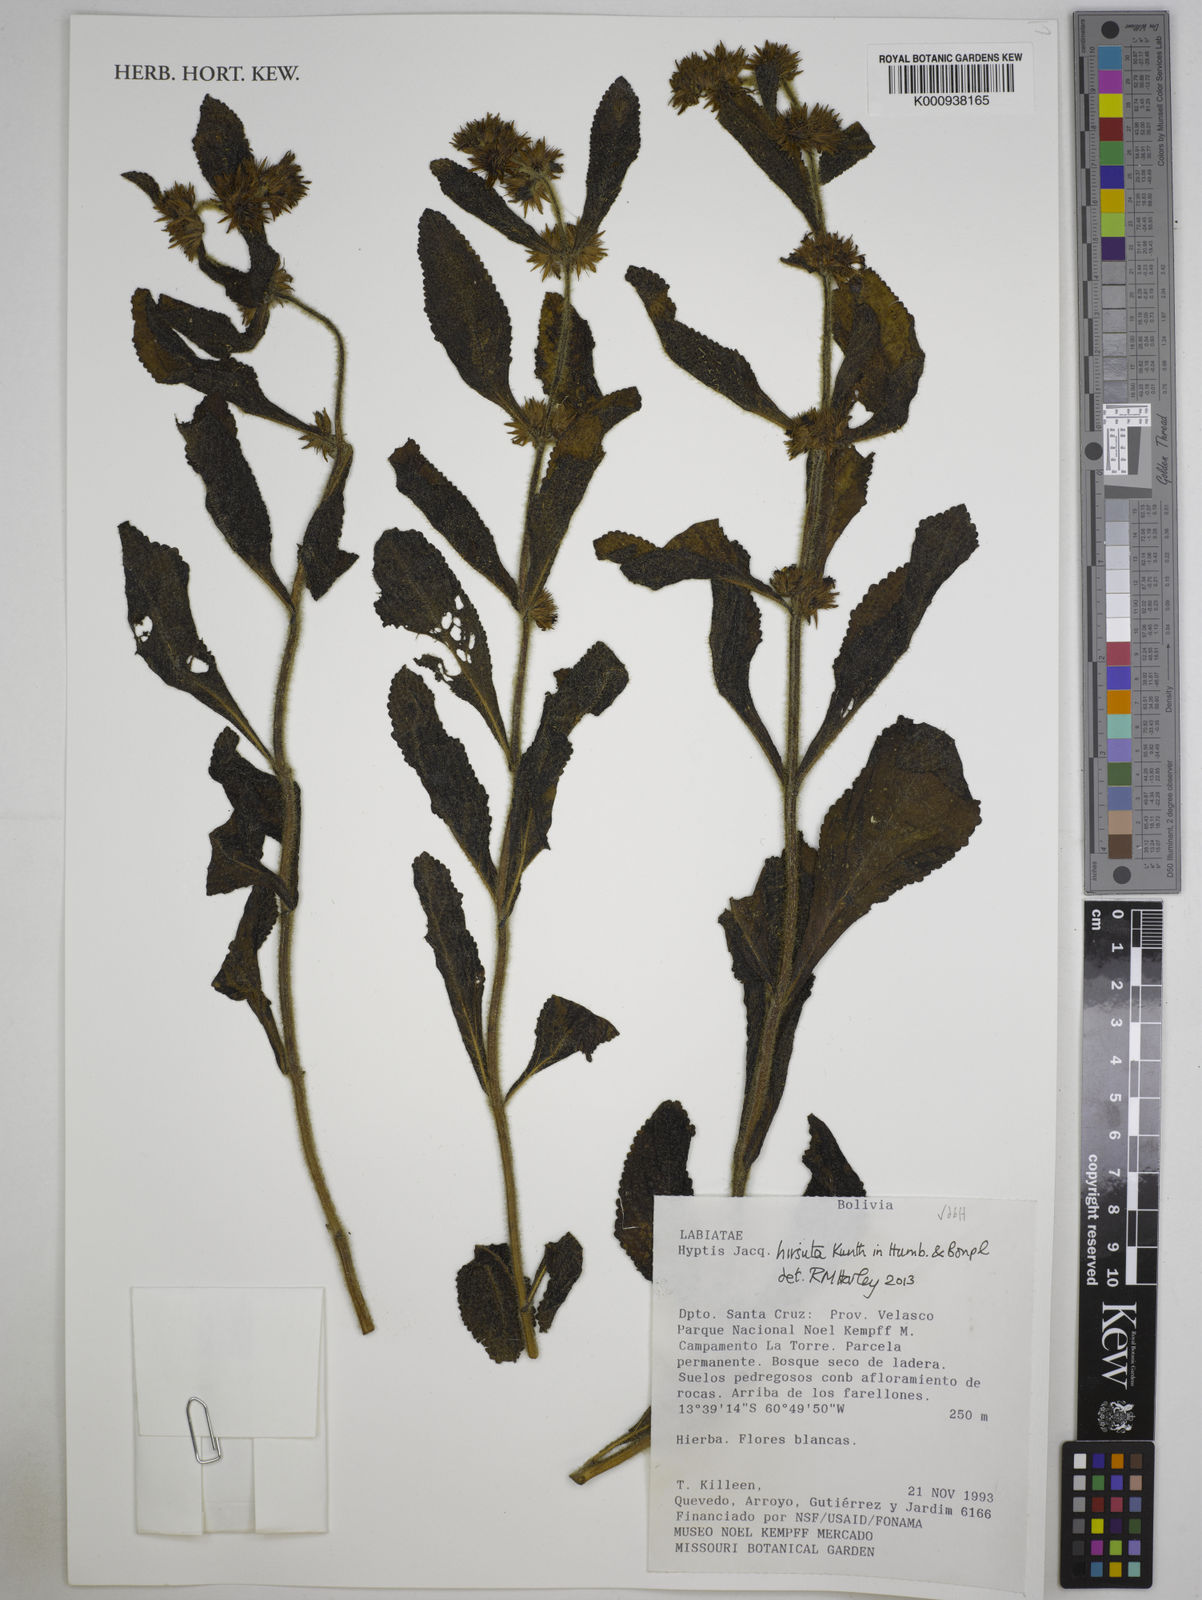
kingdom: Plantae
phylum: Tracheophyta
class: Magnoliopsida
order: Lamiales
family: Lamiaceae
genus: Hyptis
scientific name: Hyptis hirsuta
